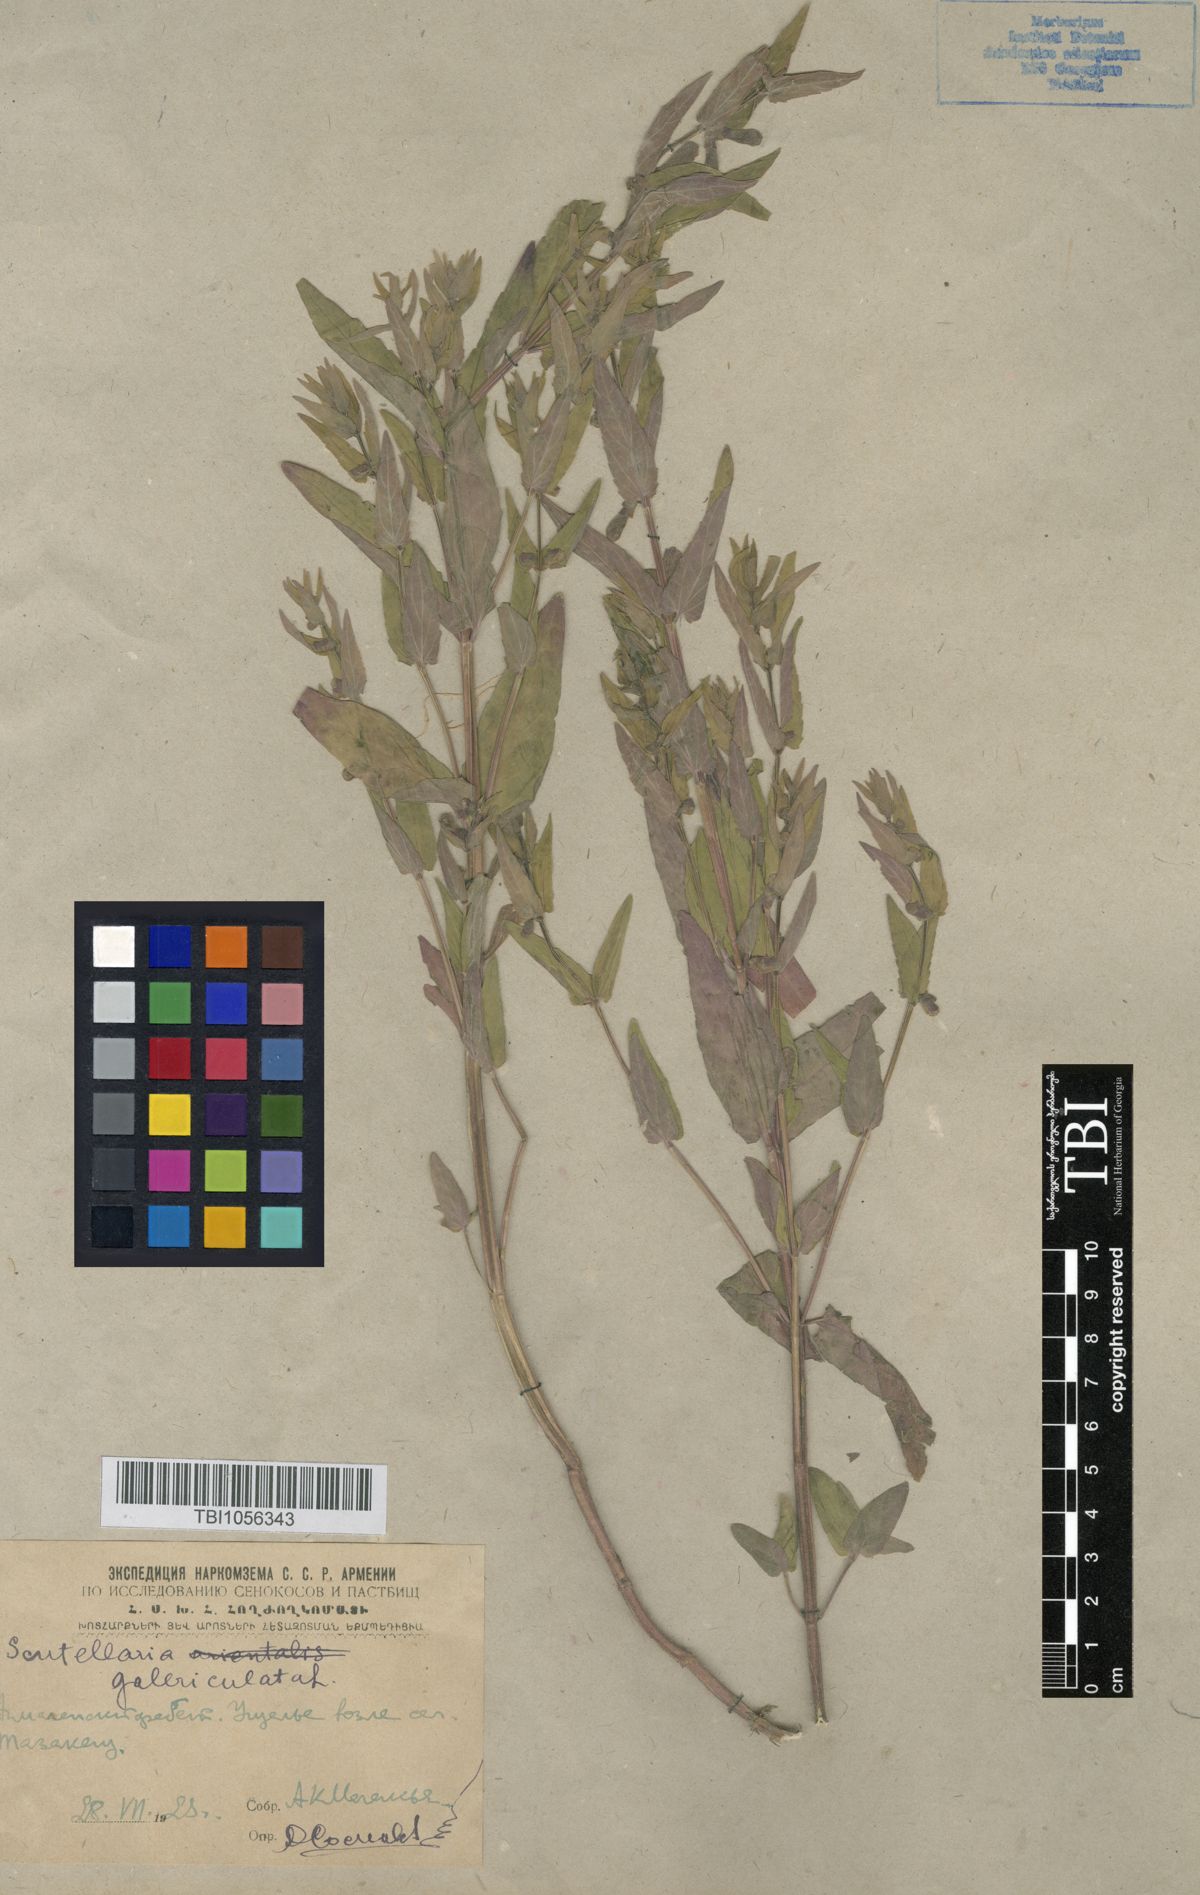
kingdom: Plantae
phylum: Tracheophyta
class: Magnoliopsida
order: Lamiales
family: Lamiaceae
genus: Scutellaria
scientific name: Scutellaria galericulata
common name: Skullcap
